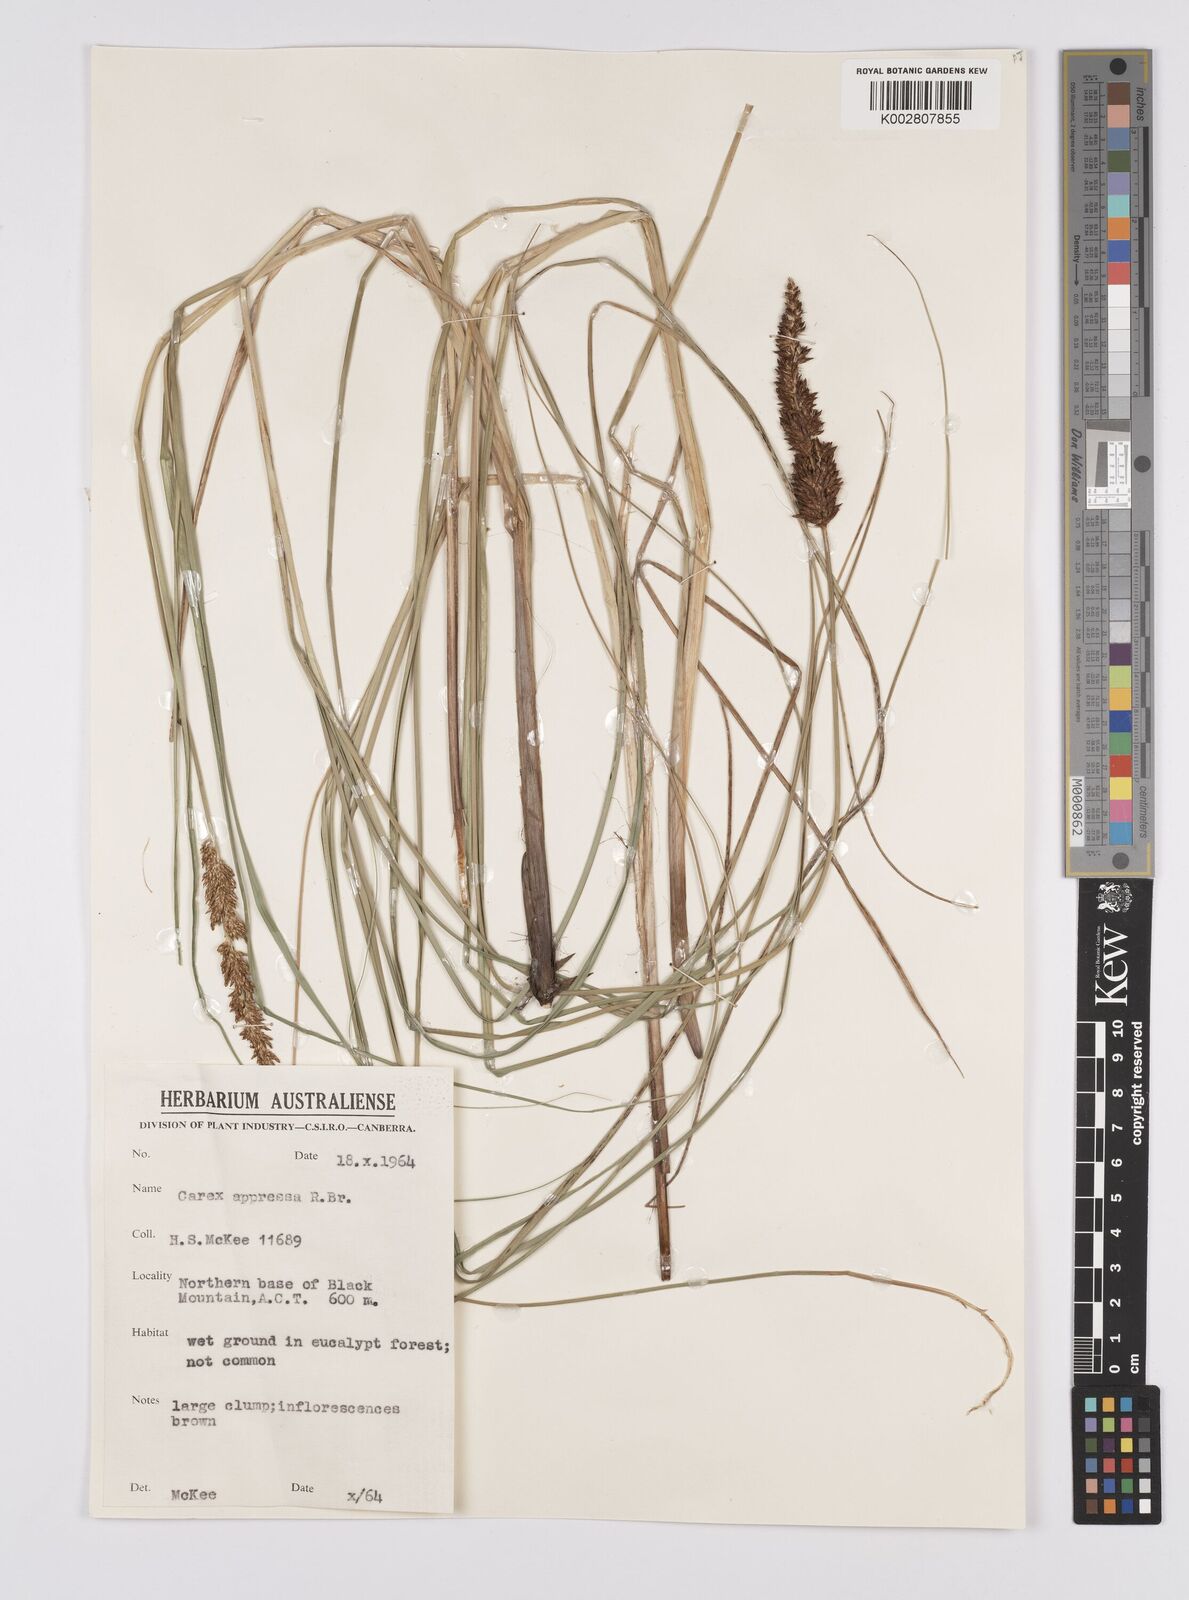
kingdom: Plantae
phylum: Tracheophyta
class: Liliopsida
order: Poales
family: Cyperaceae
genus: Carex
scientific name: Carex appressa
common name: Tussock sedge
